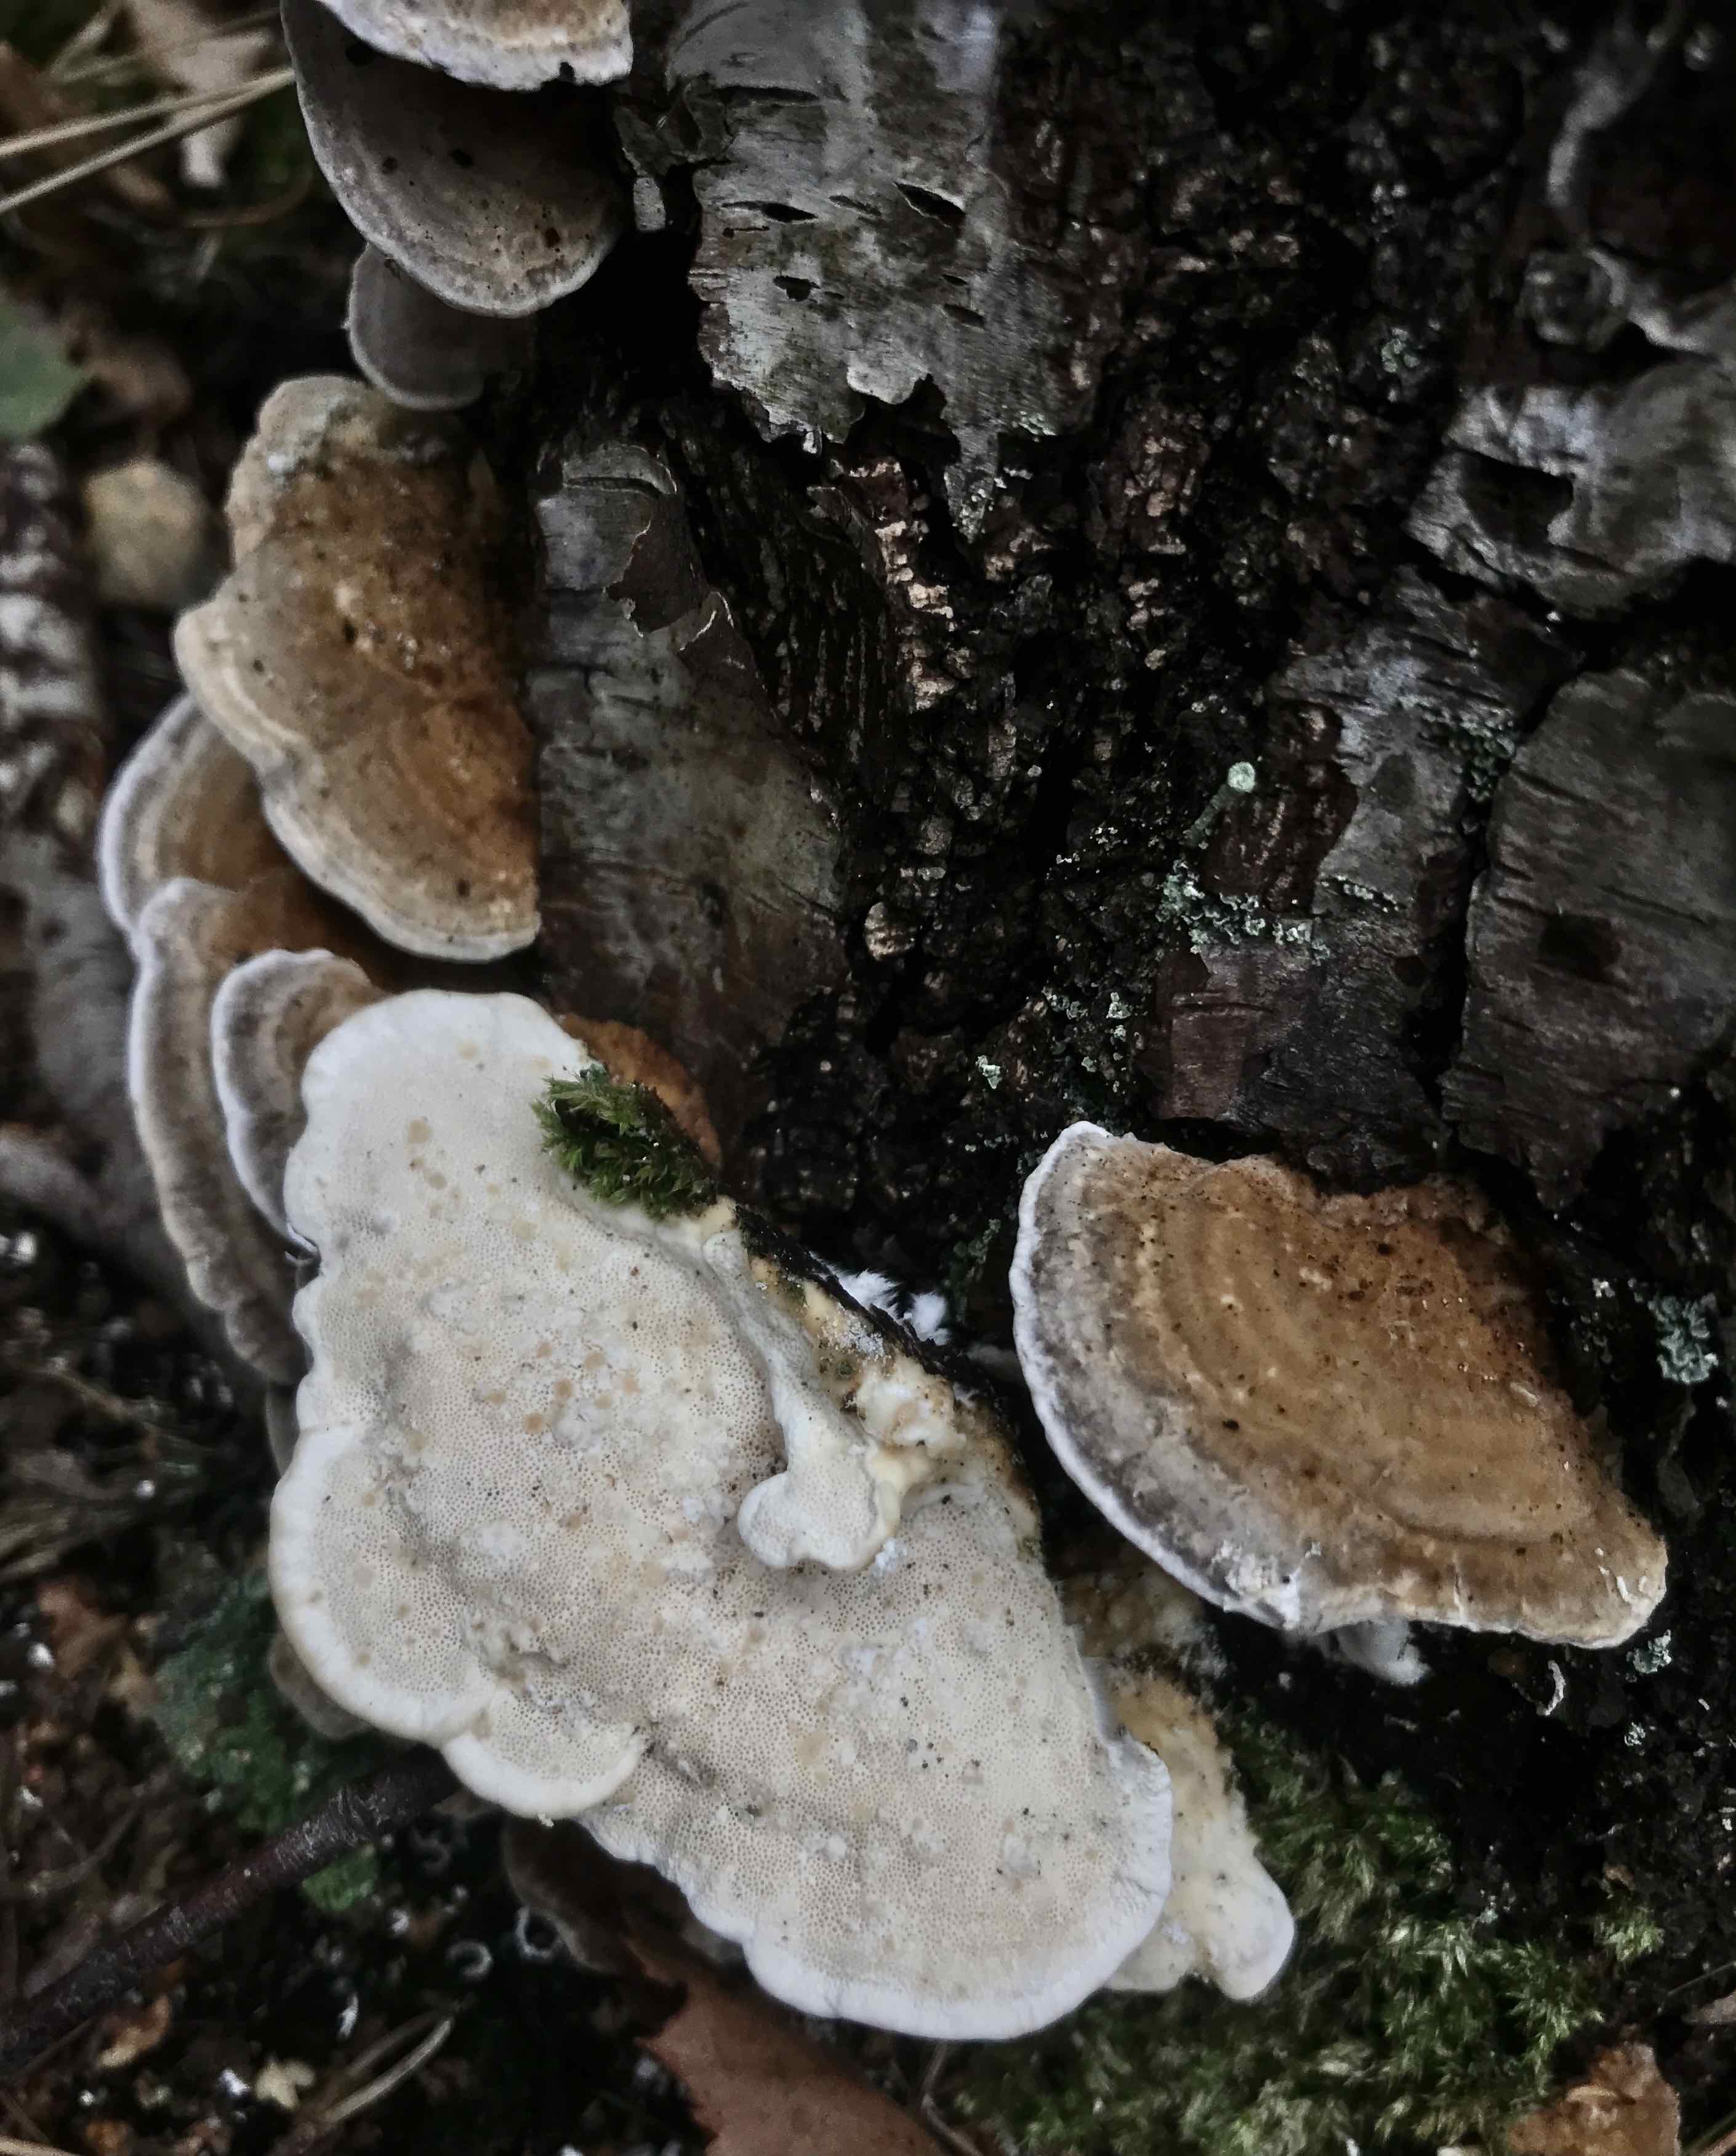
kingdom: Fungi
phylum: Basidiomycota
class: Agaricomycetes
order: Polyporales
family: Polyporaceae
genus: Trametes
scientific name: Trametes ochracea
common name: bæltet læderporesvamp
